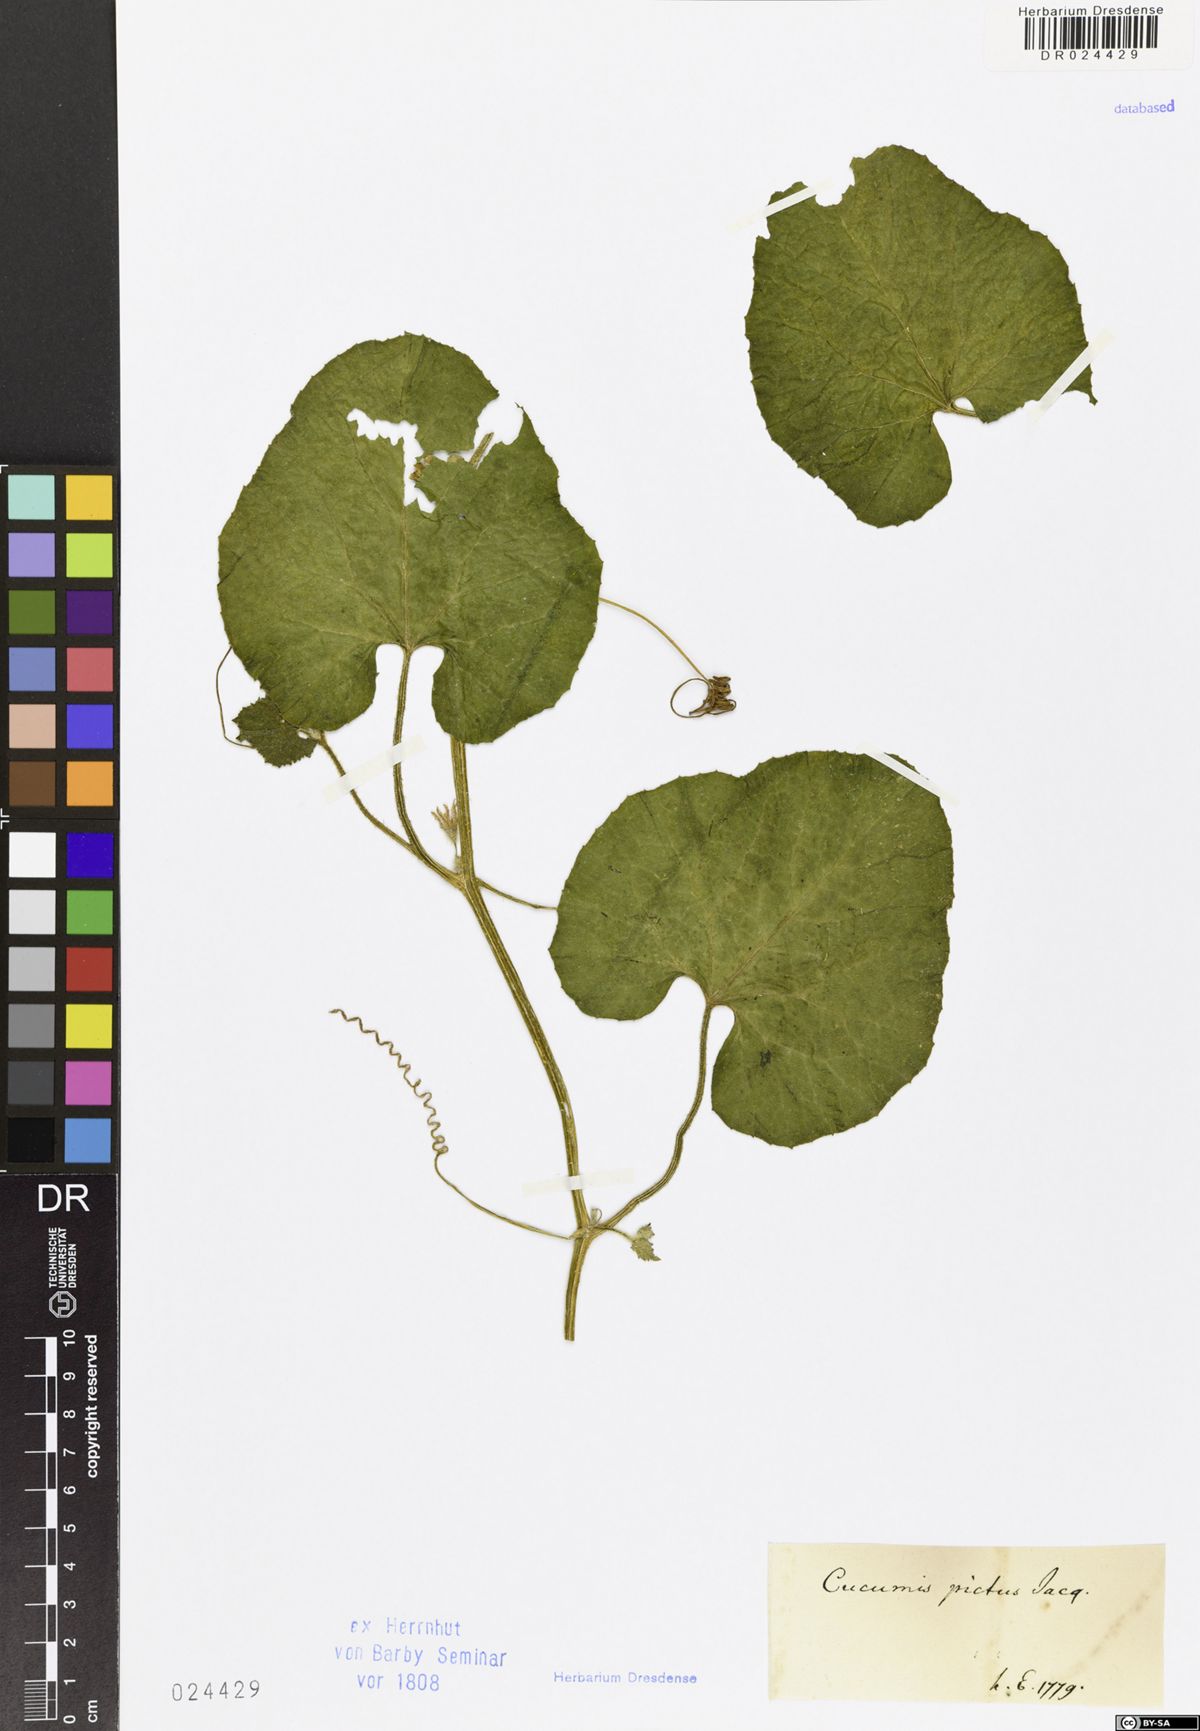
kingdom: Plantae
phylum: Tracheophyta
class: Magnoliopsida
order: Cucurbitales
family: Cucurbitaceae
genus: Cucumis
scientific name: Cucumis melo
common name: Melon
